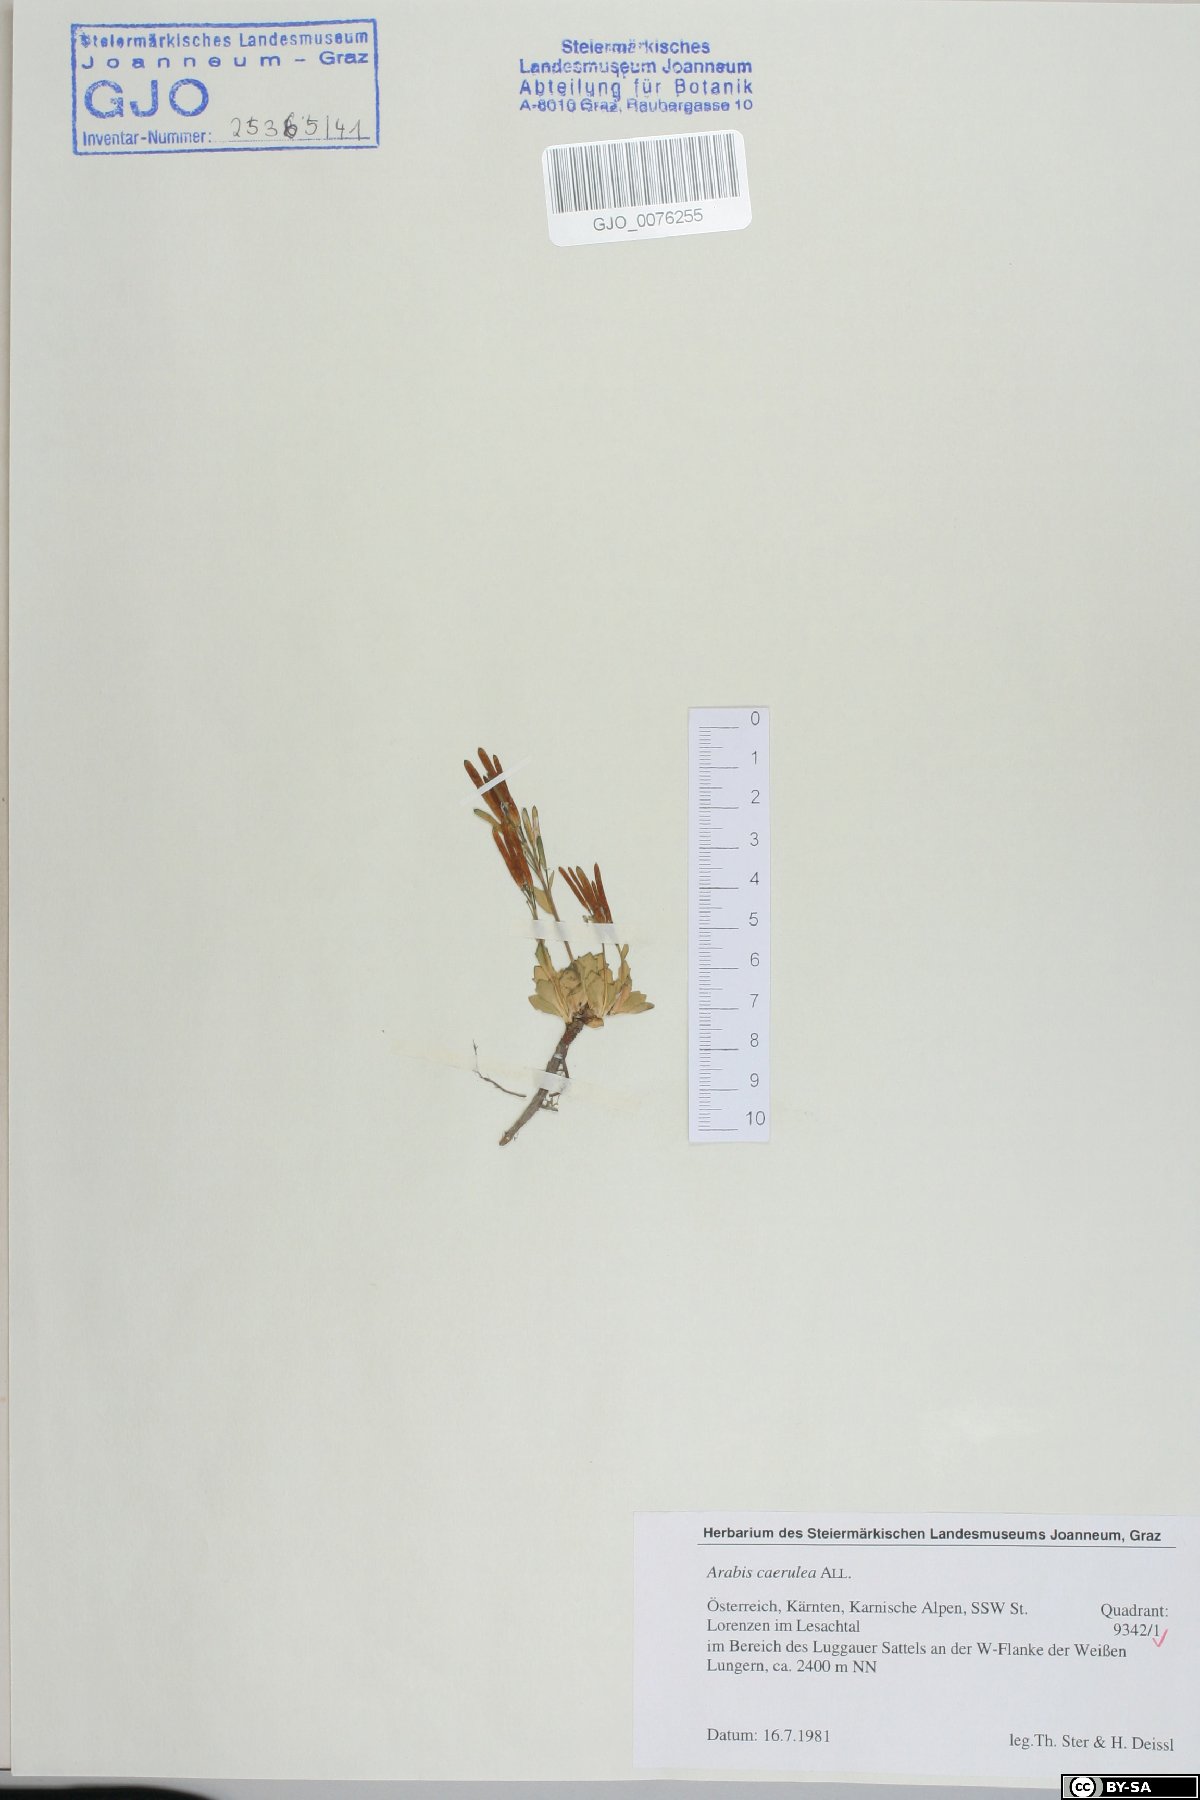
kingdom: Plantae
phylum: Tracheophyta
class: Magnoliopsida
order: Brassicales
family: Brassicaceae
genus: Arabis
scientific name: Arabis caerulea
